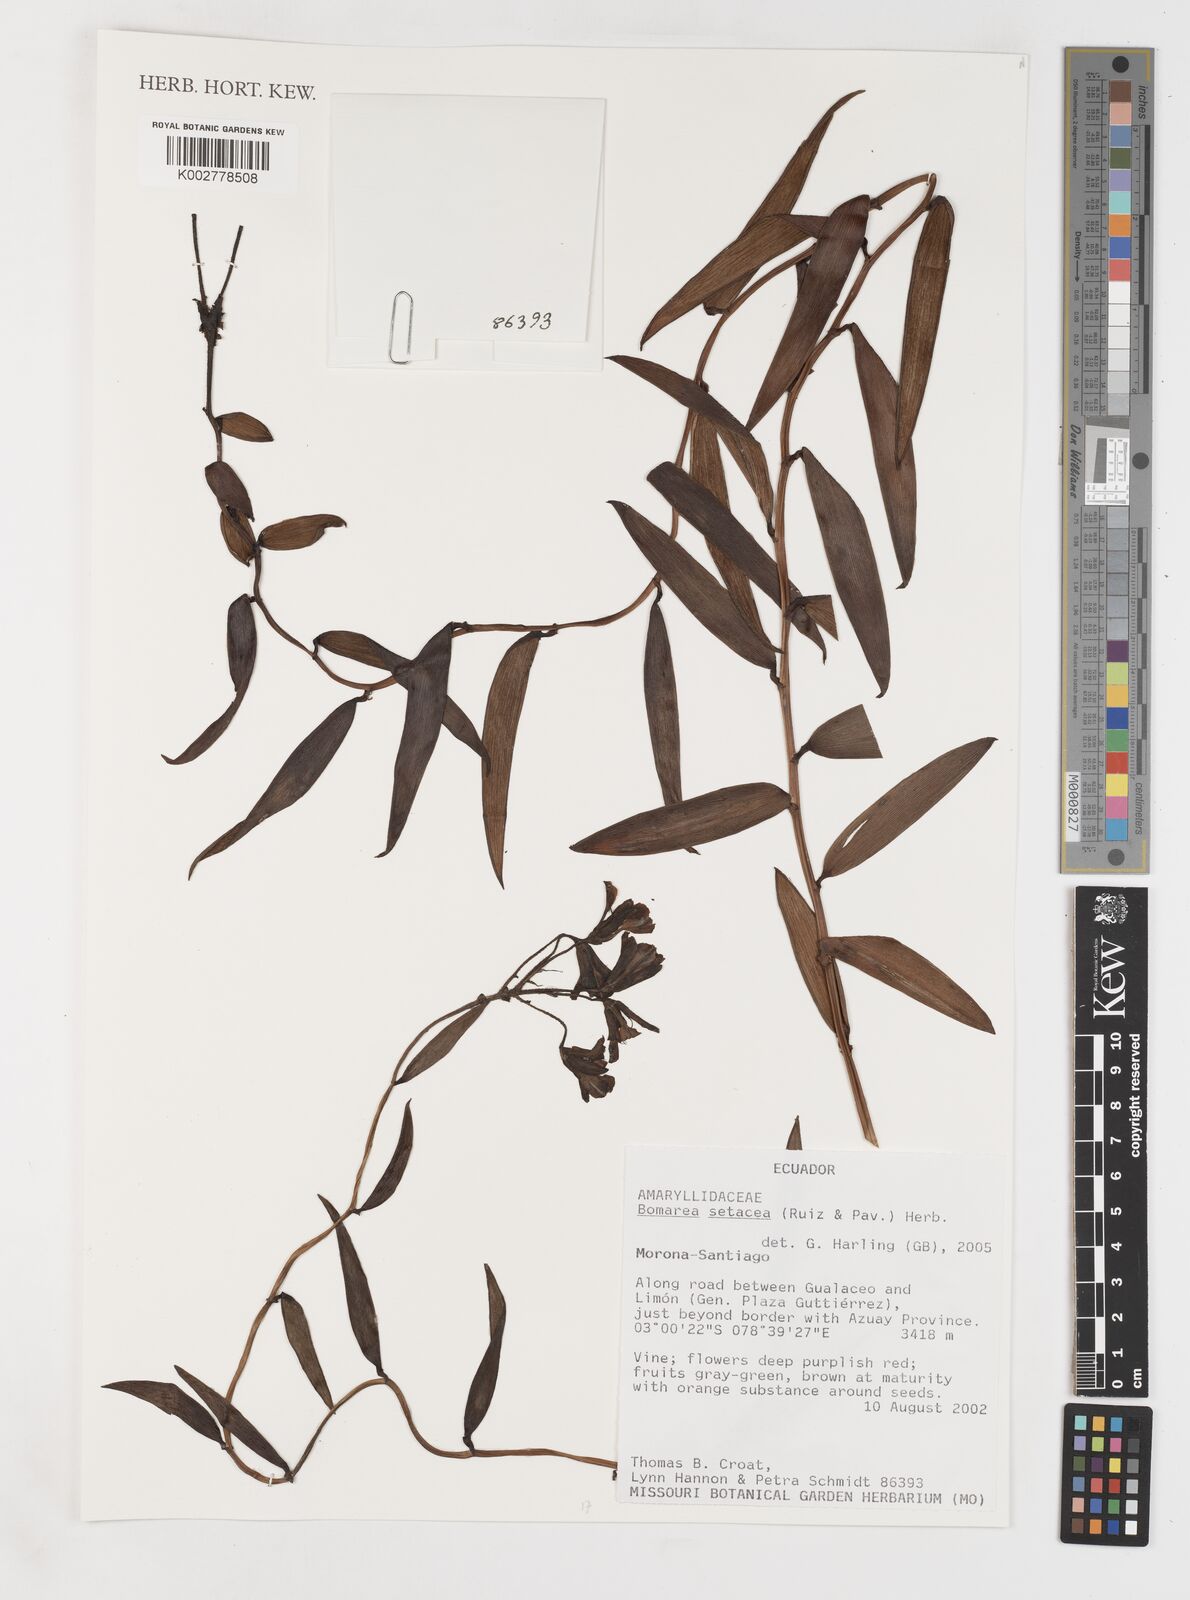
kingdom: Plantae
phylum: Tracheophyta
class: Liliopsida
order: Liliales
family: Alstroemeriaceae
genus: Bomarea
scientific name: Bomarea setacea
